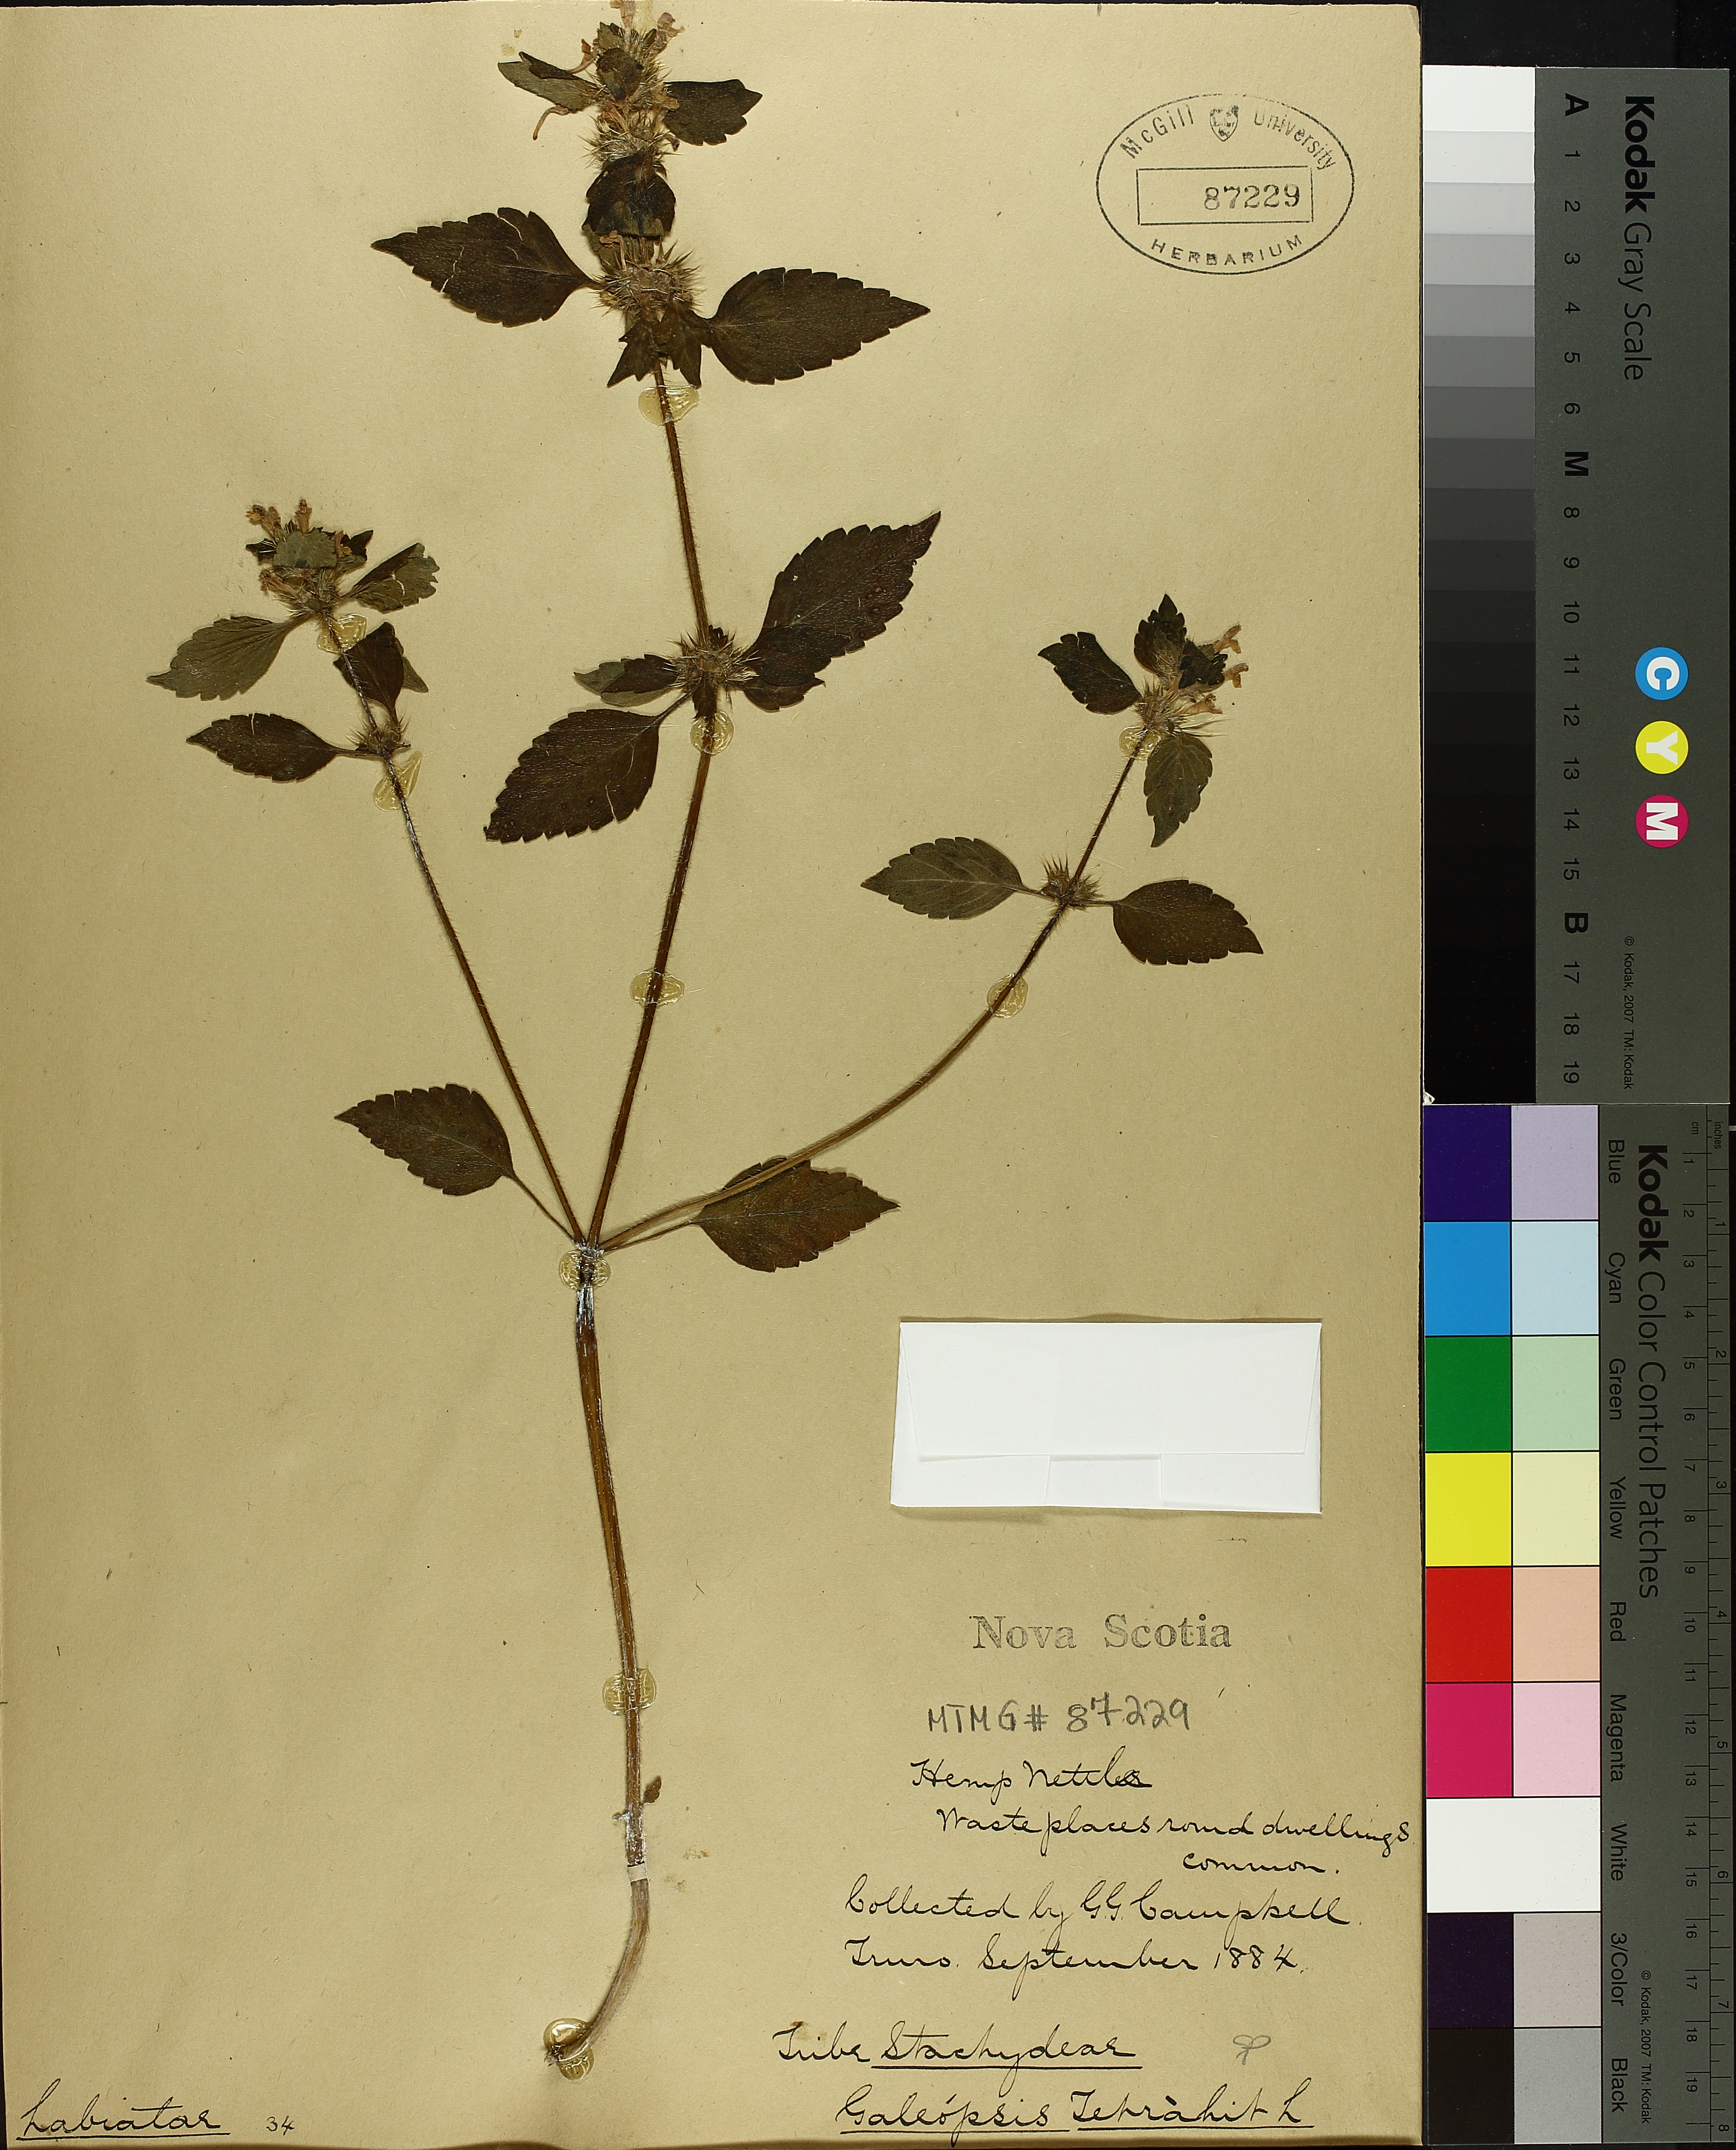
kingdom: Plantae
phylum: Tracheophyta
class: Magnoliopsida
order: Lamiales
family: Lamiaceae
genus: Galeopsis
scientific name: Galeopsis tetrahit
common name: Common hemp-nettle
